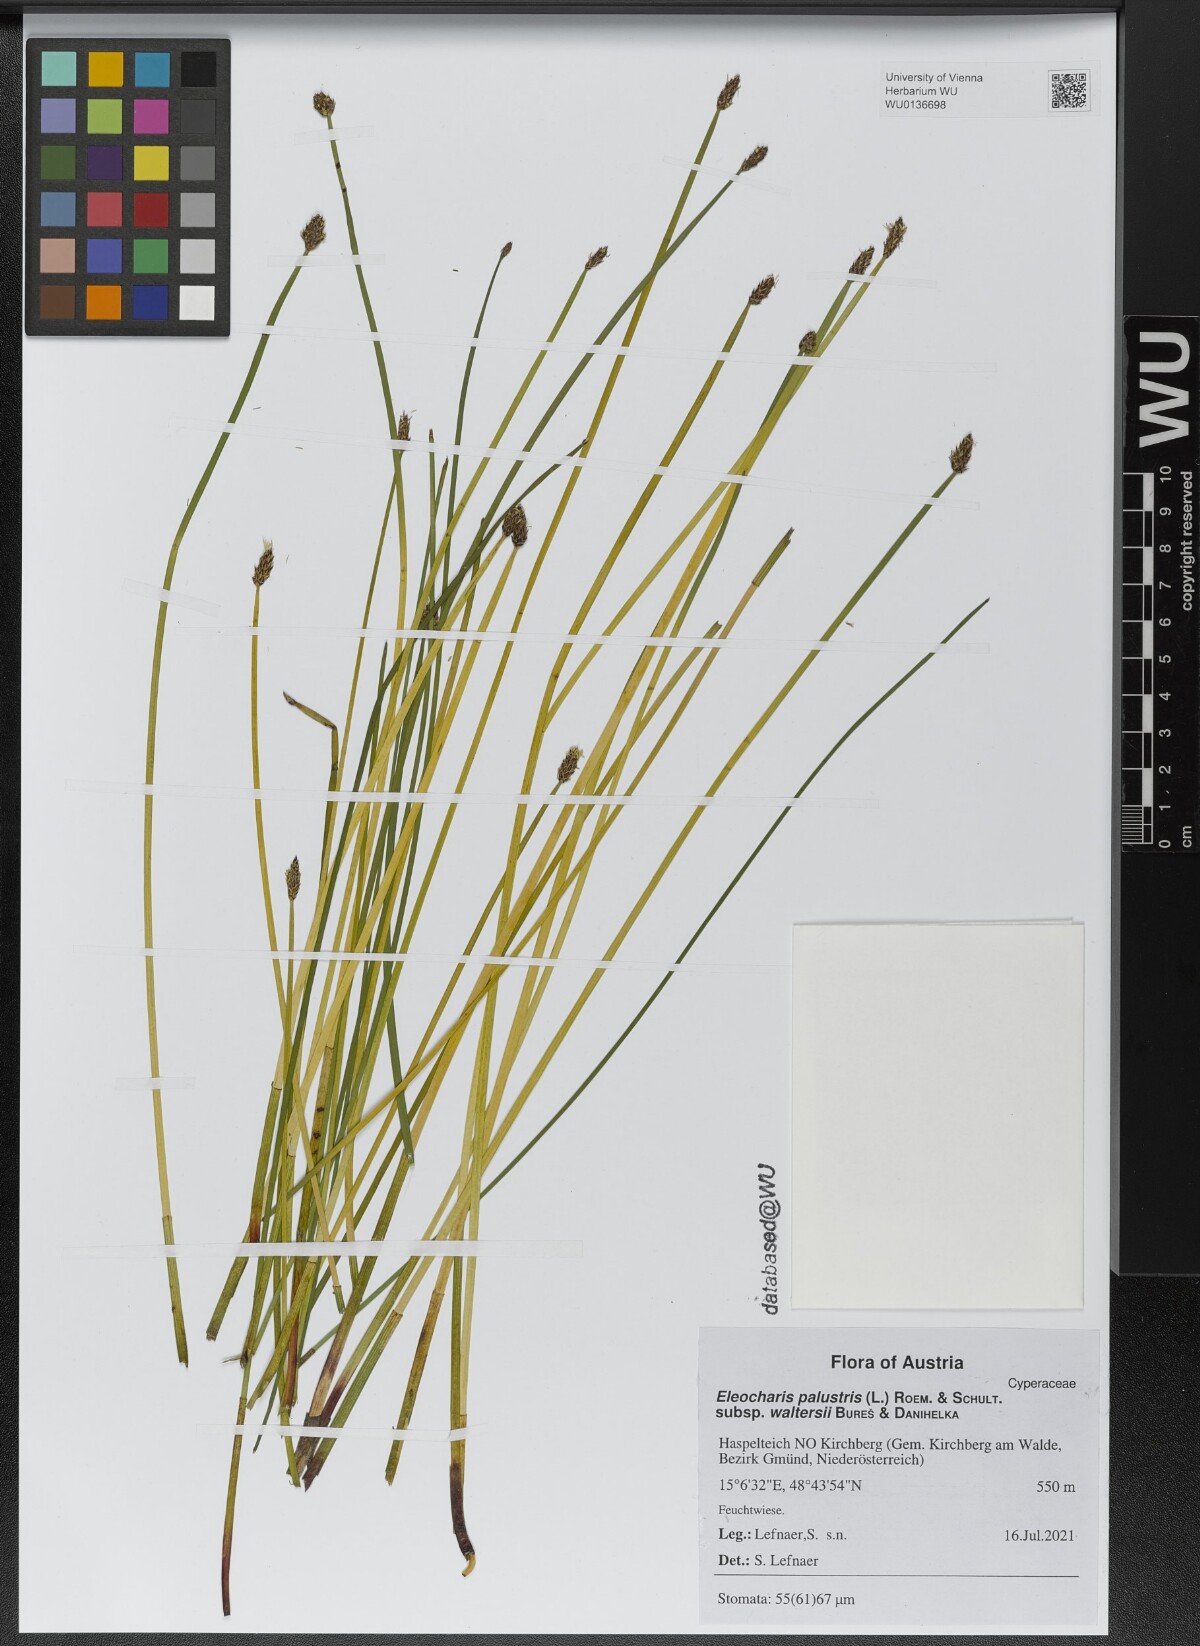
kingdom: Plantae
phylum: Tracheophyta
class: Liliopsida
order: Poales
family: Cyperaceae
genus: Eleocharis
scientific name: Eleocharis palustris
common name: Common spike-rush
